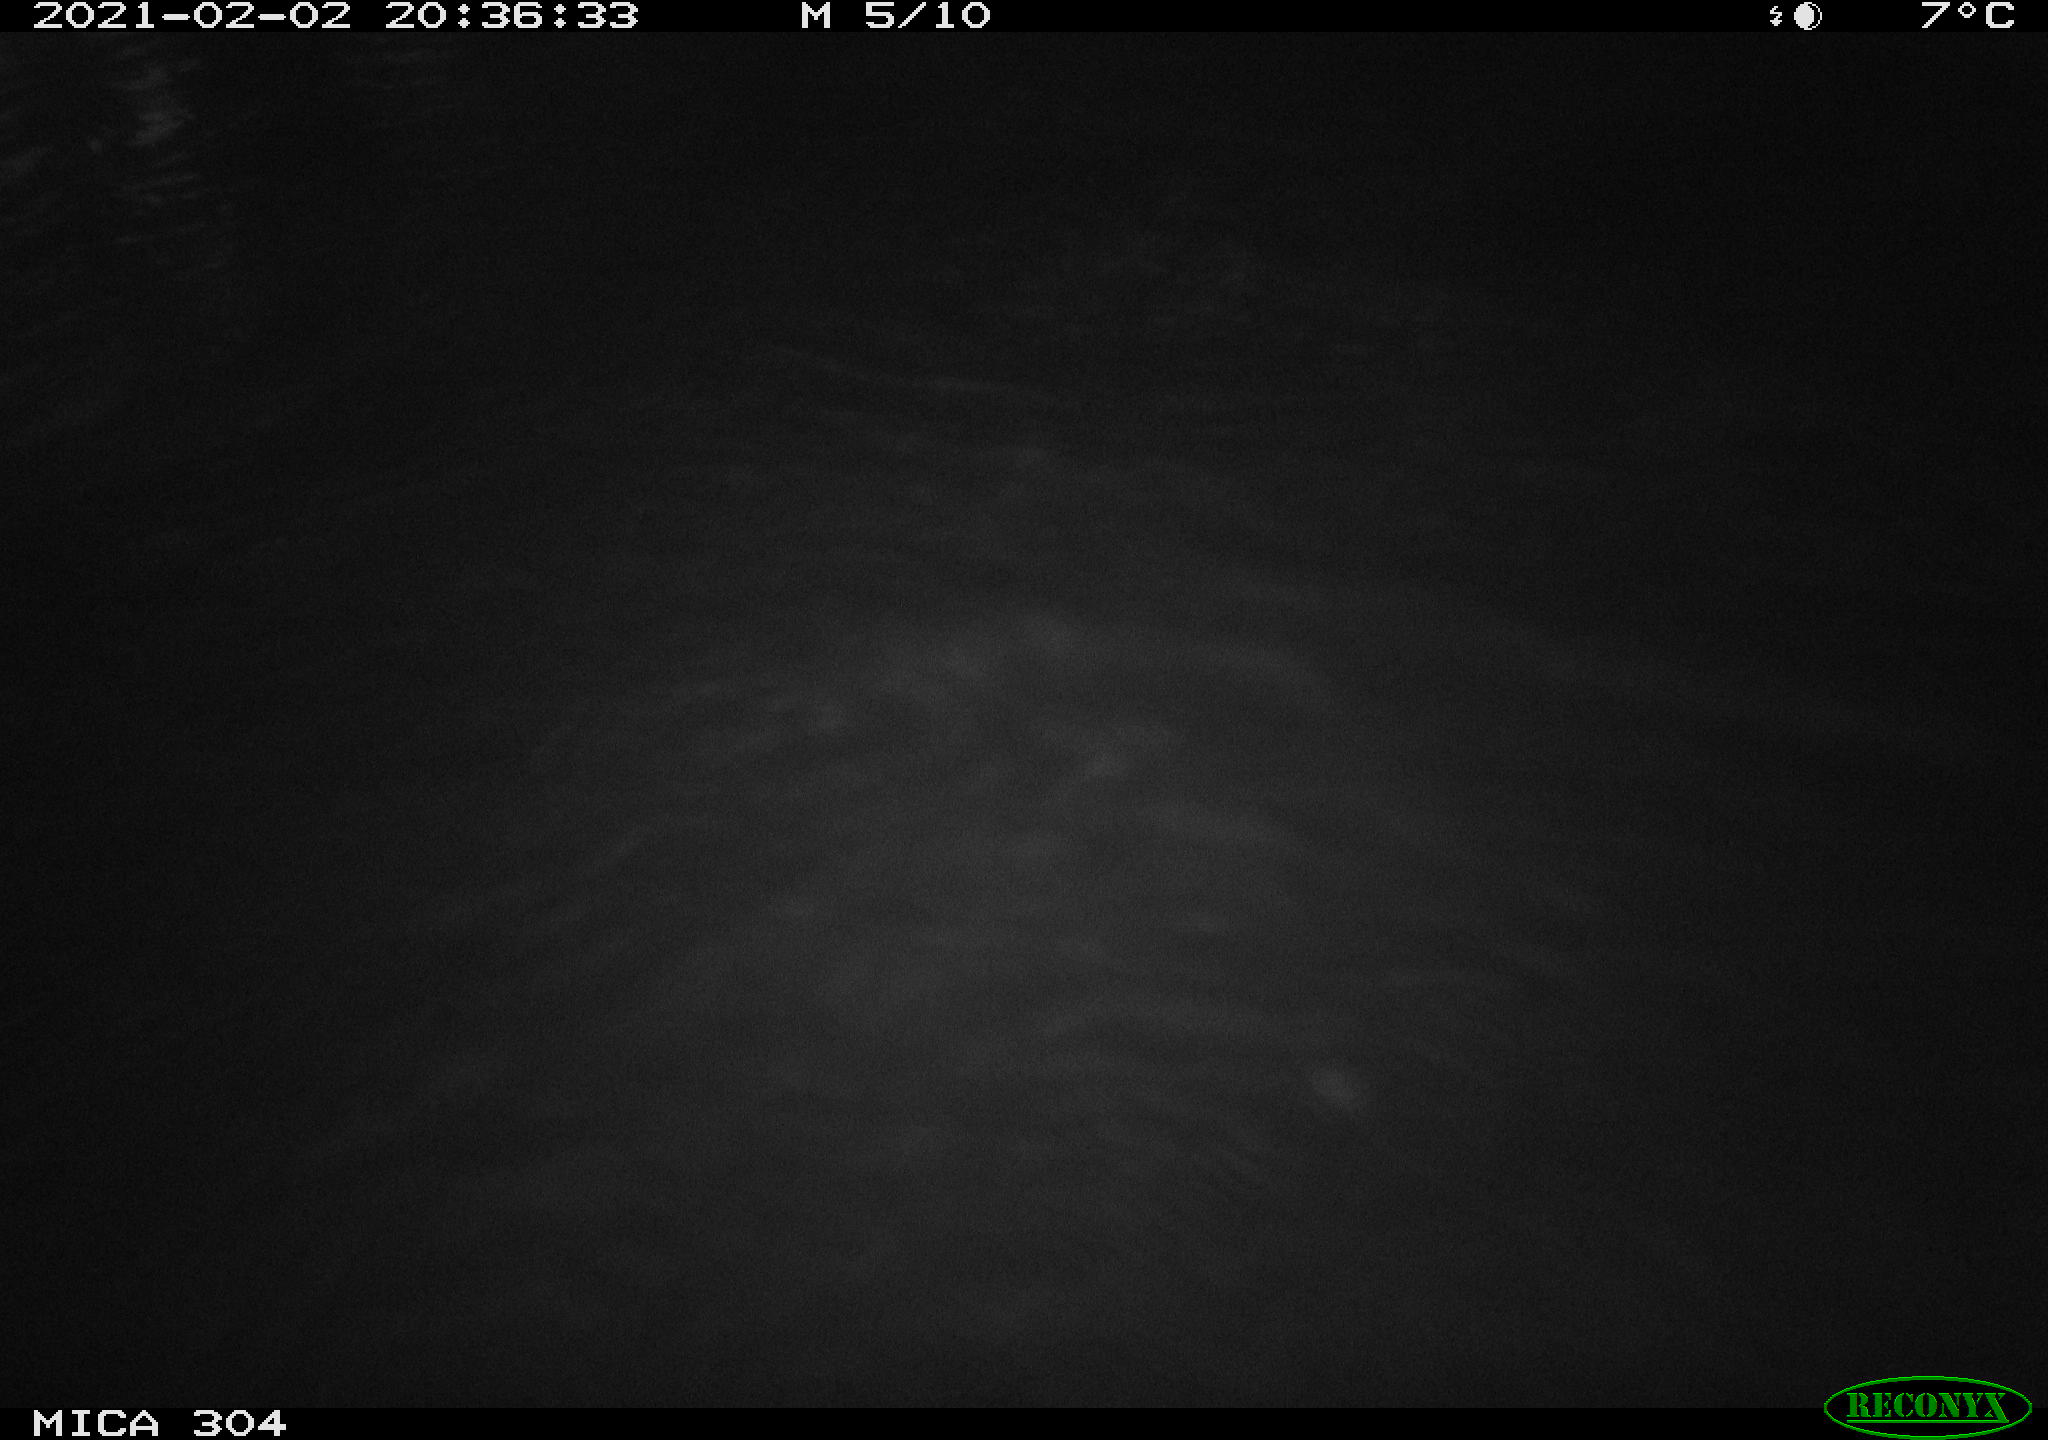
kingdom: Animalia
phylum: Chordata
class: Mammalia
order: Rodentia
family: Cricetidae
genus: Ondatra
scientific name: Ondatra zibethicus
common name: Muskrat
